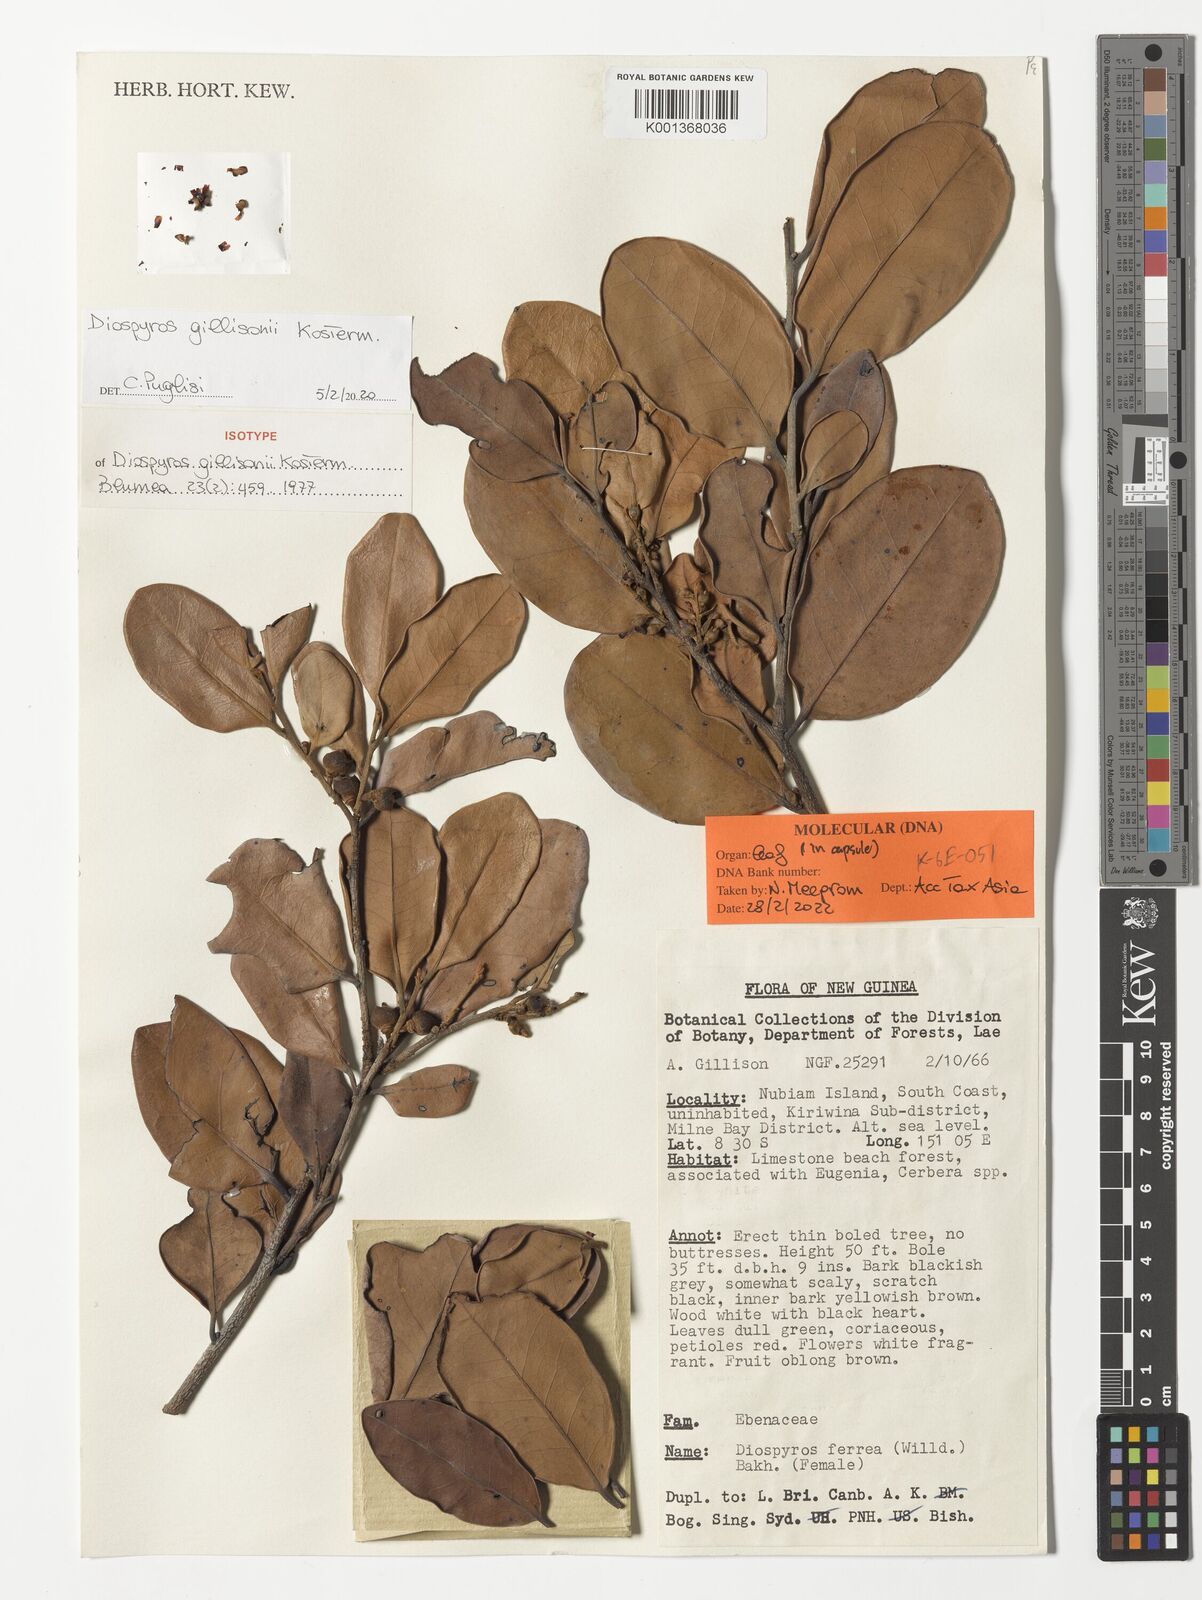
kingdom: Plantae
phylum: Tracheophyta
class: Magnoliopsida
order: Ericales
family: Ebenaceae
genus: Diospyros
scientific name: Diospyros gillisonii
